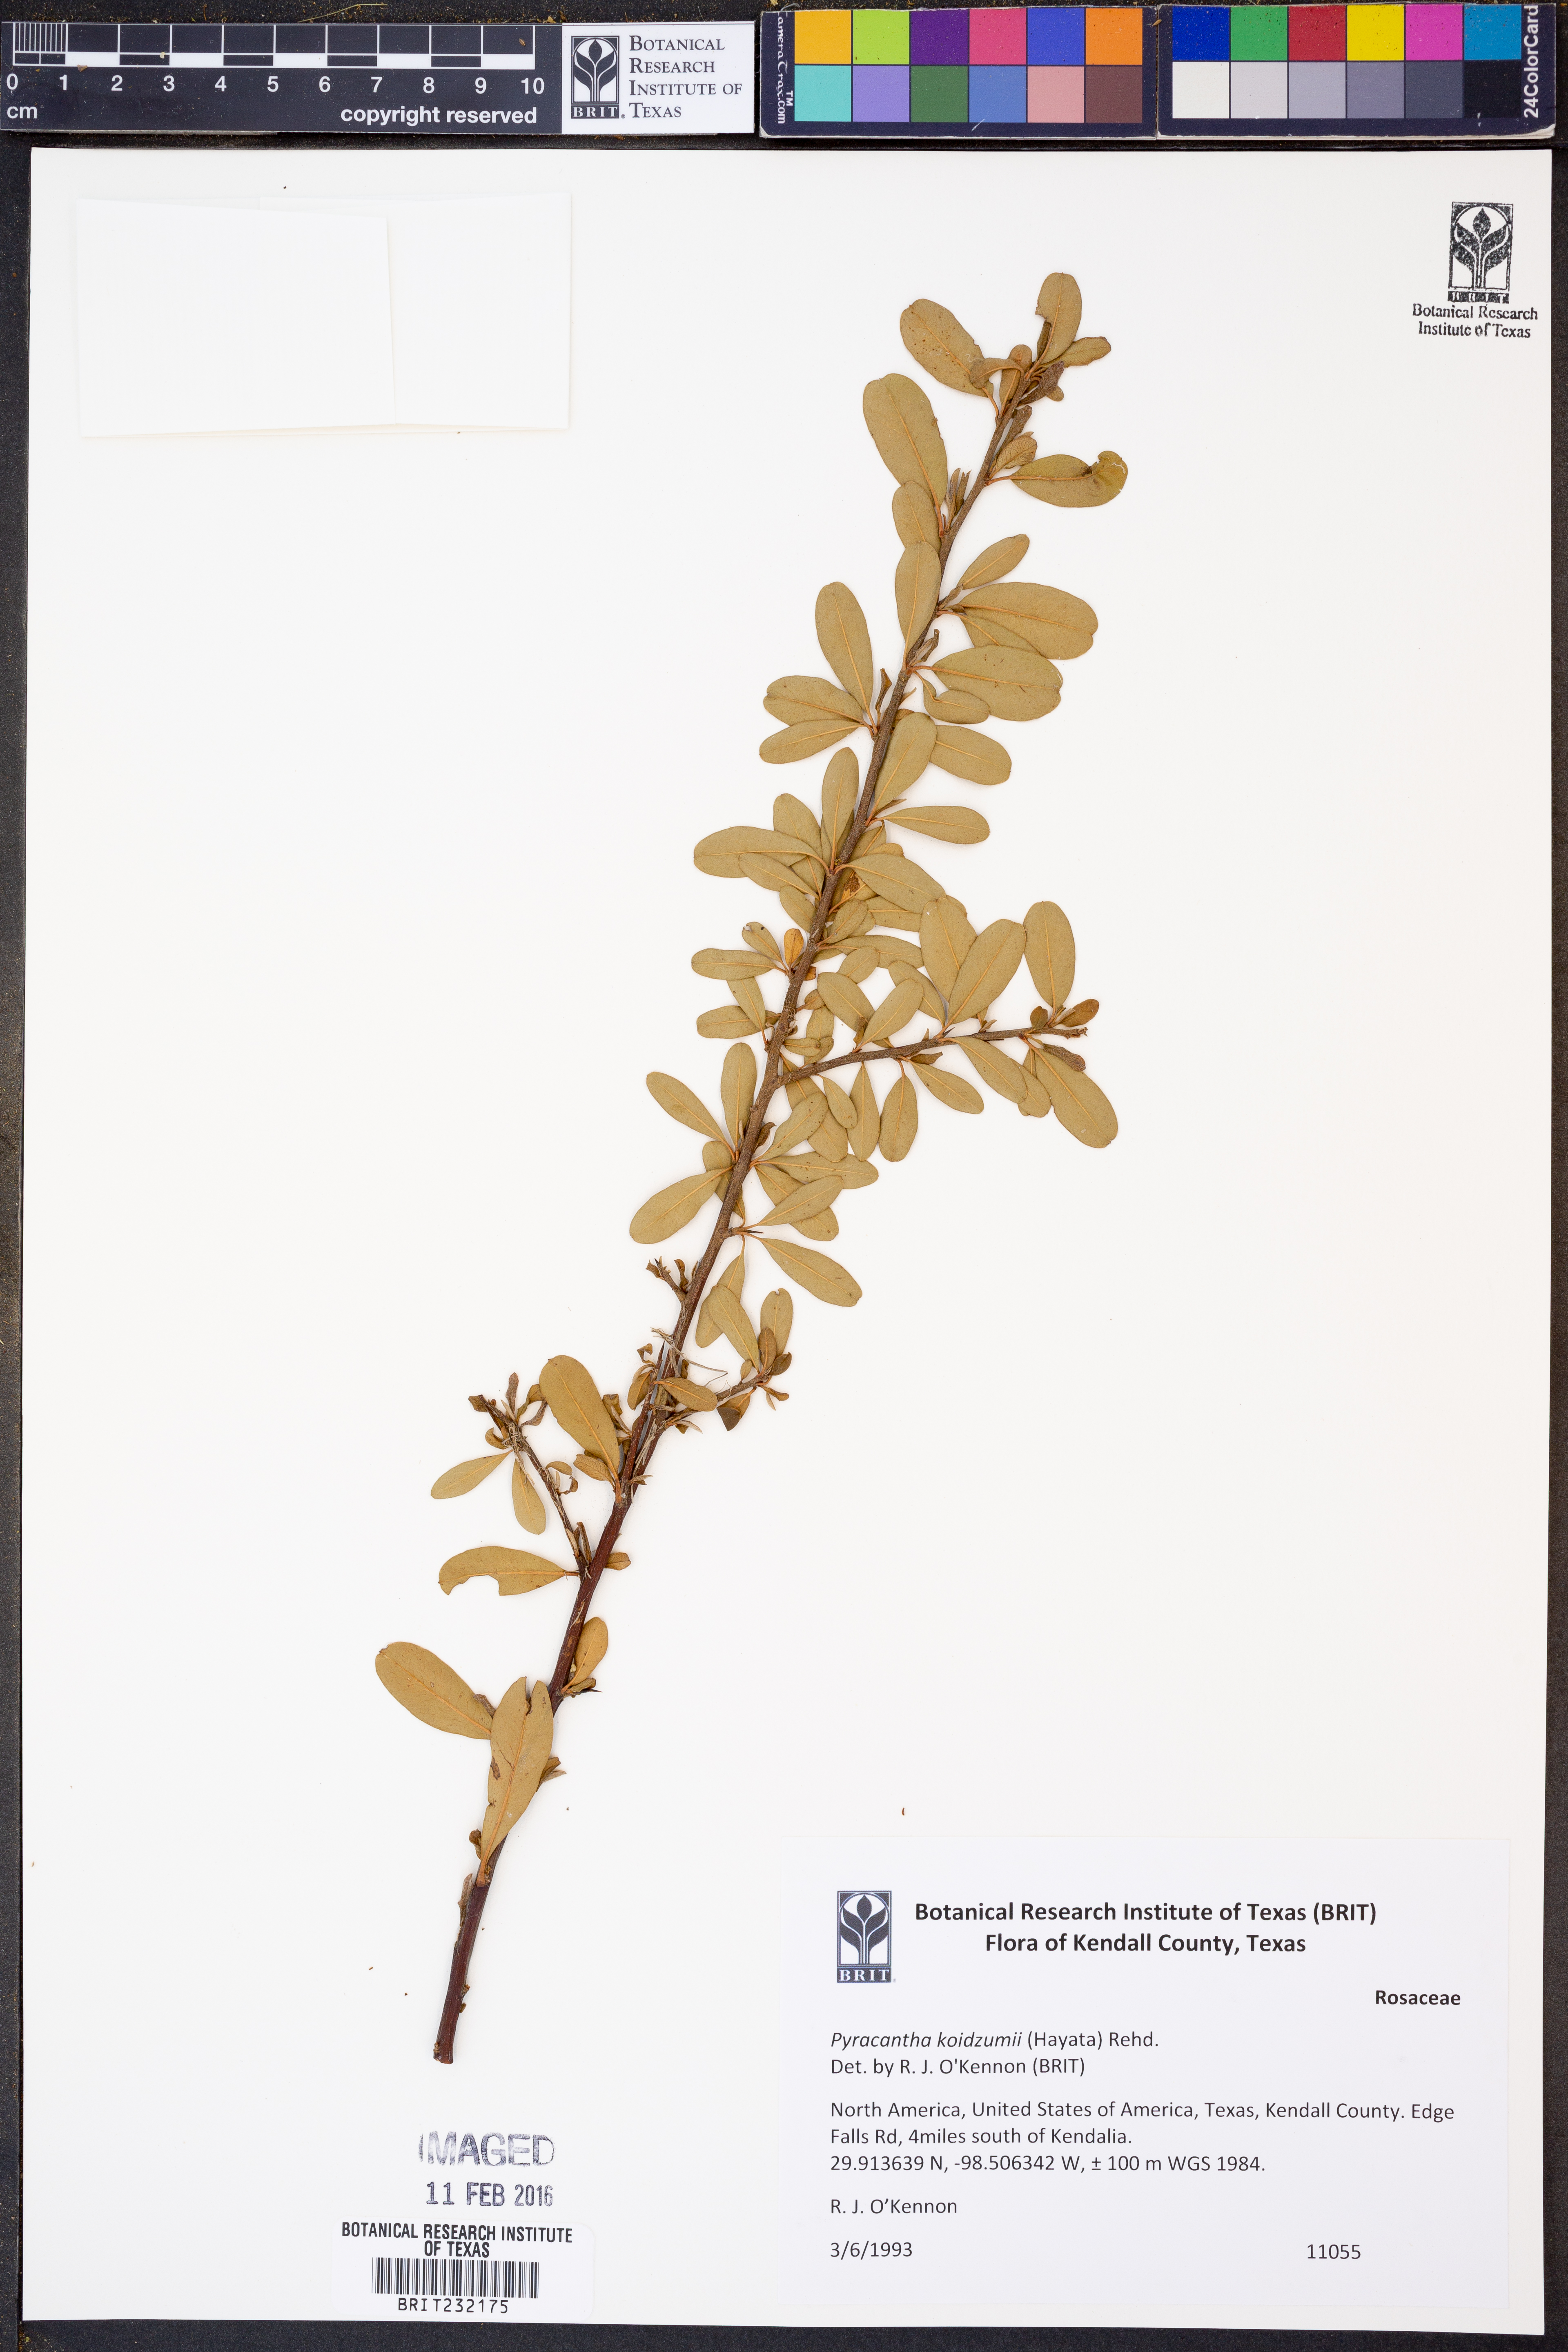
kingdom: Plantae
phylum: Tracheophyta
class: Magnoliopsida
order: Rosales
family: Rosaceae
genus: Pyracantha
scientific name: Pyracantha koidzumii
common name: Formosa firethorn
